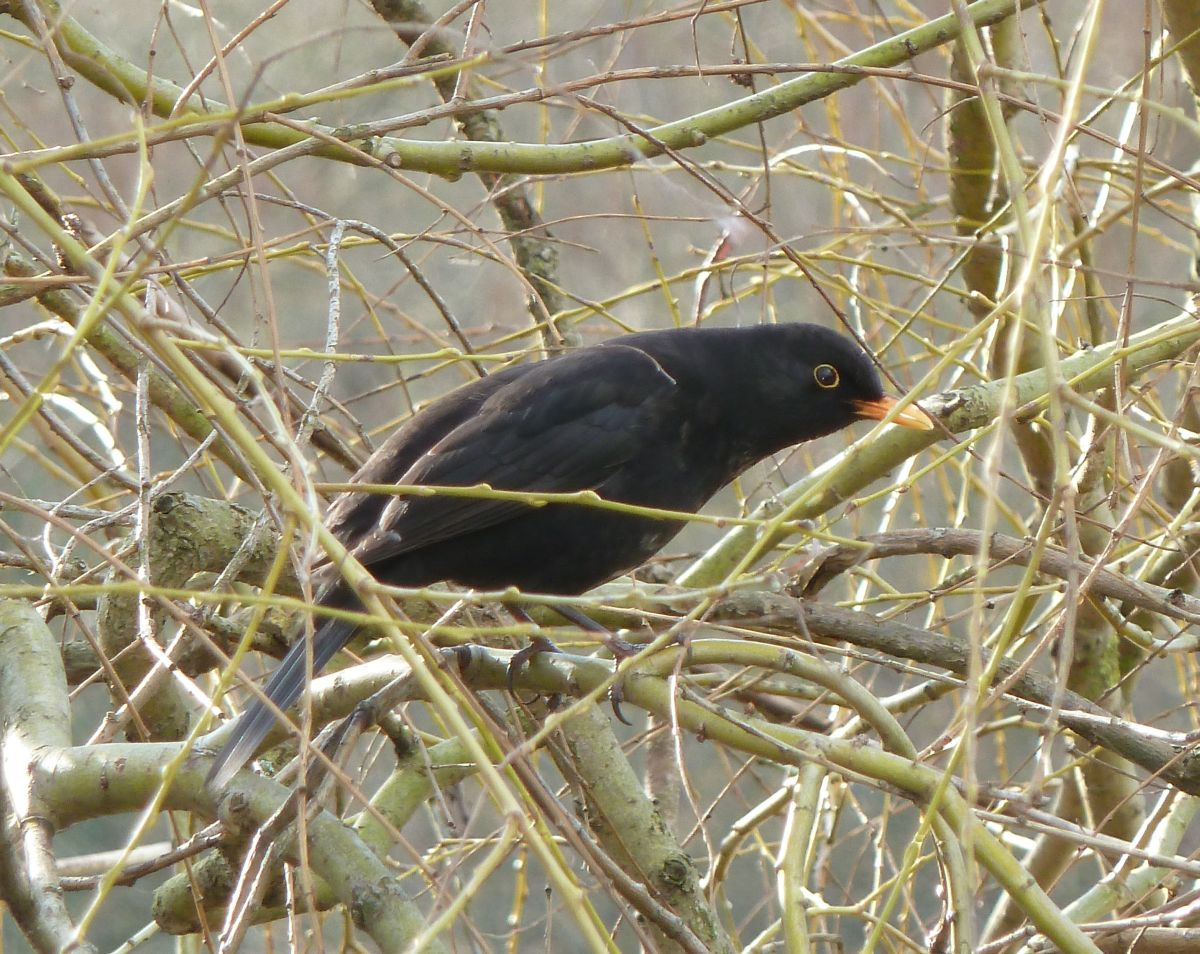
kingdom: Animalia
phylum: Chordata
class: Aves
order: Passeriformes
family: Turdidae
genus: Turdus
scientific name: Turdus merula
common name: Common blackbird
